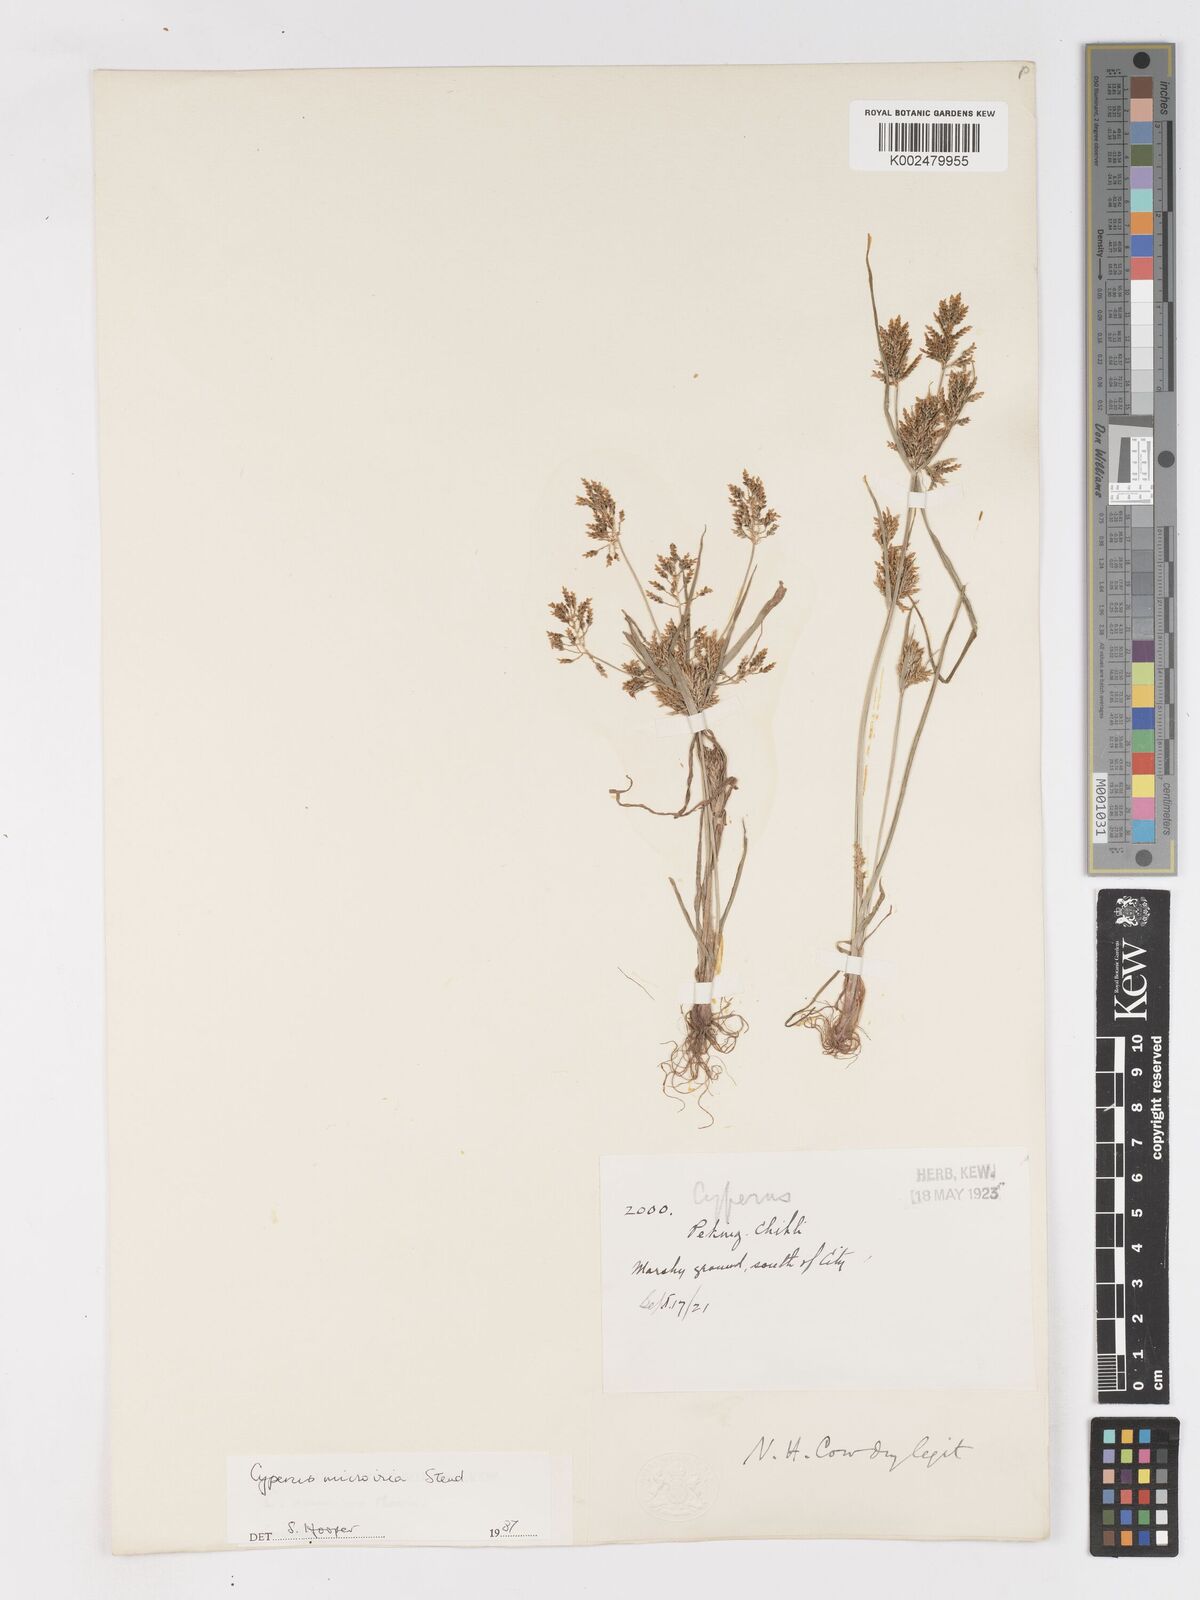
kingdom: Plantae
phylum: Tracheophyta
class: Liliopsida
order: Poales
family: Cyperaceae
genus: Cyperus
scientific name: Cyperus microiria
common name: Asian flatsedge
